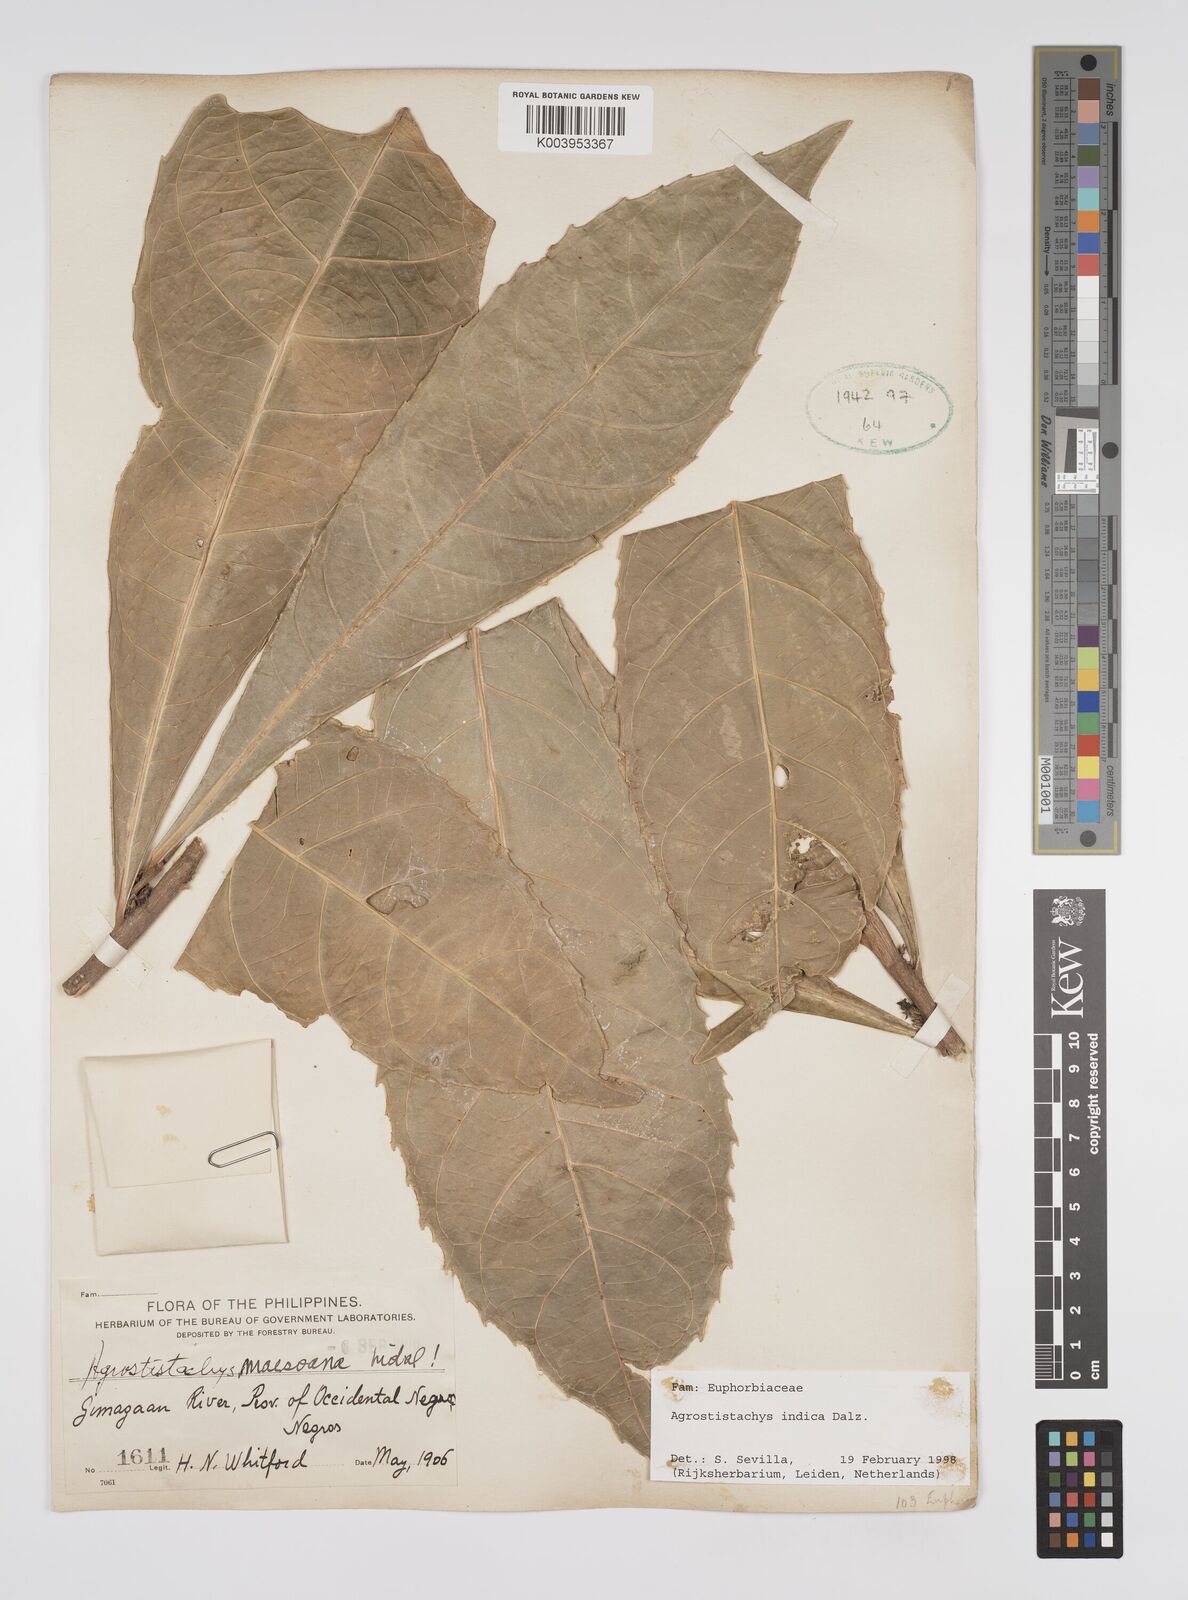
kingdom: Plantae
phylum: Tracheophyta
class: Magnoliopsida
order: Malpighiales
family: Euphorbiaceae
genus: Agrostistachys
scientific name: Agrostistachys indica
